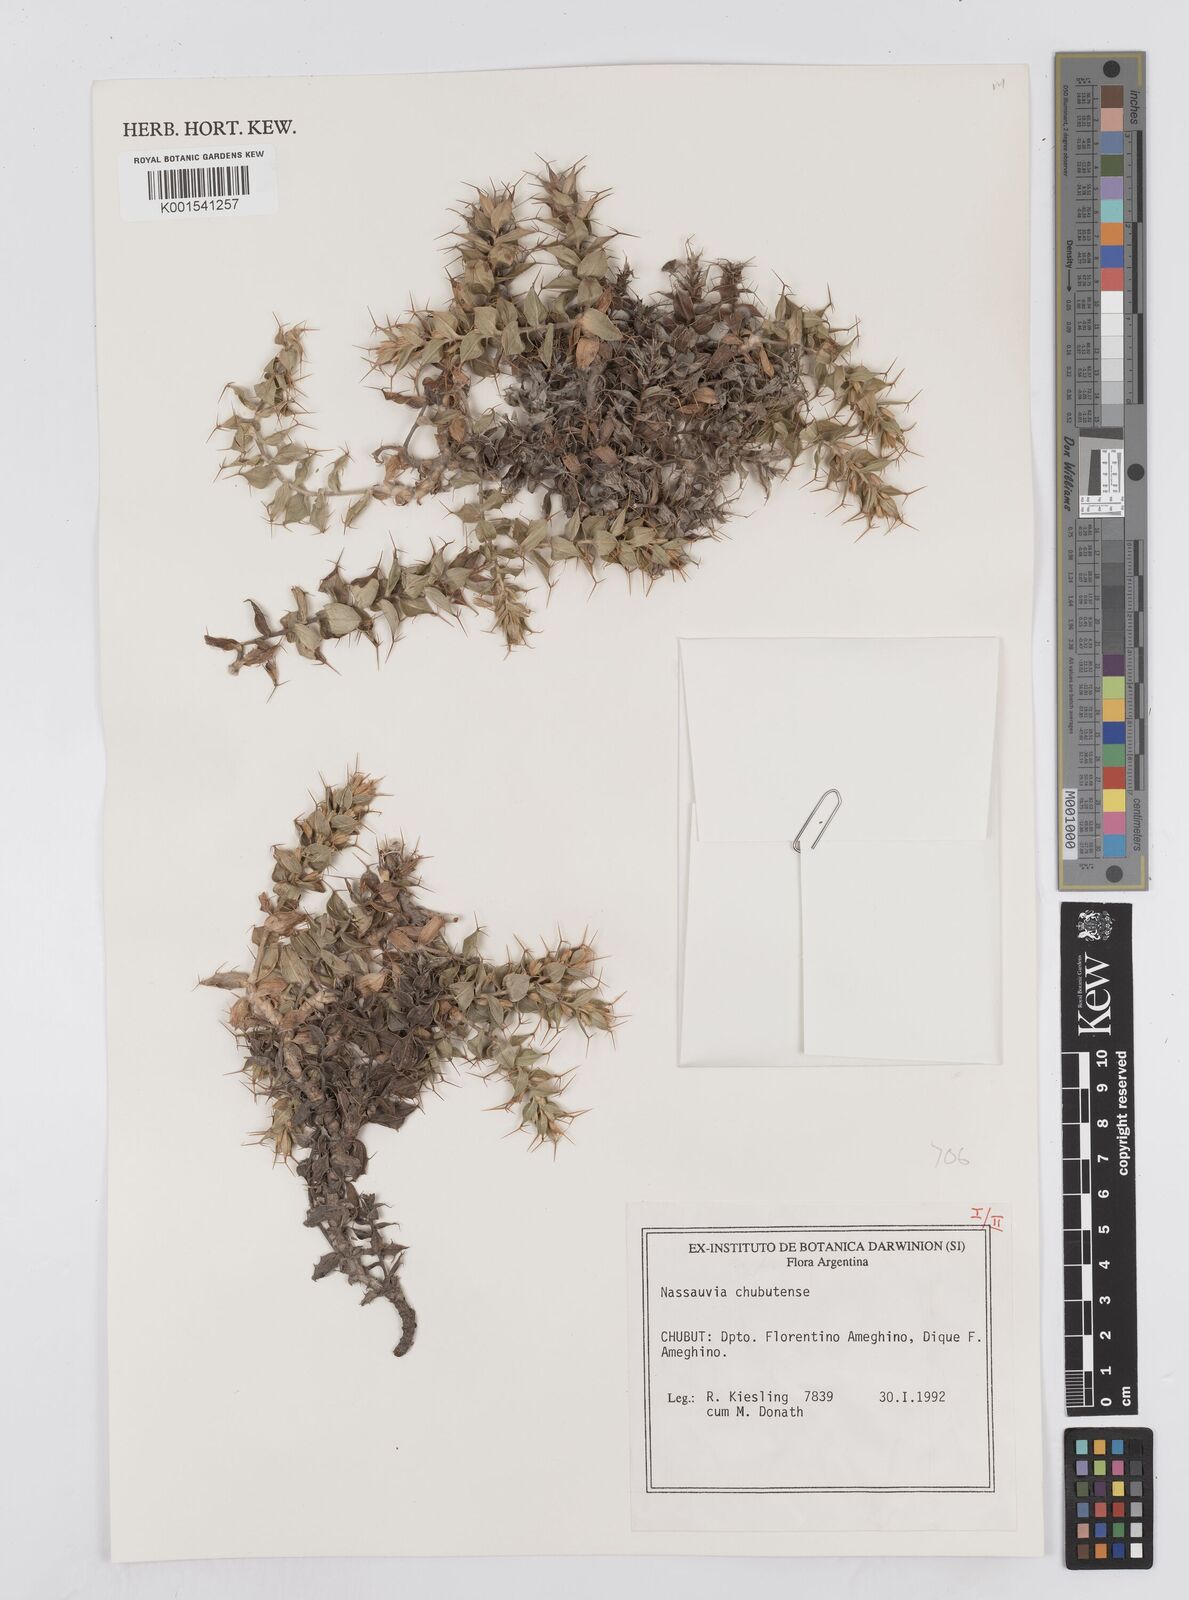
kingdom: Plantae
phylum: Tracheophyta
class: Magnoliopsida
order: Asterales
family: Asteraceae
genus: Nassauvia
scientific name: Nassauvia chubutensis
